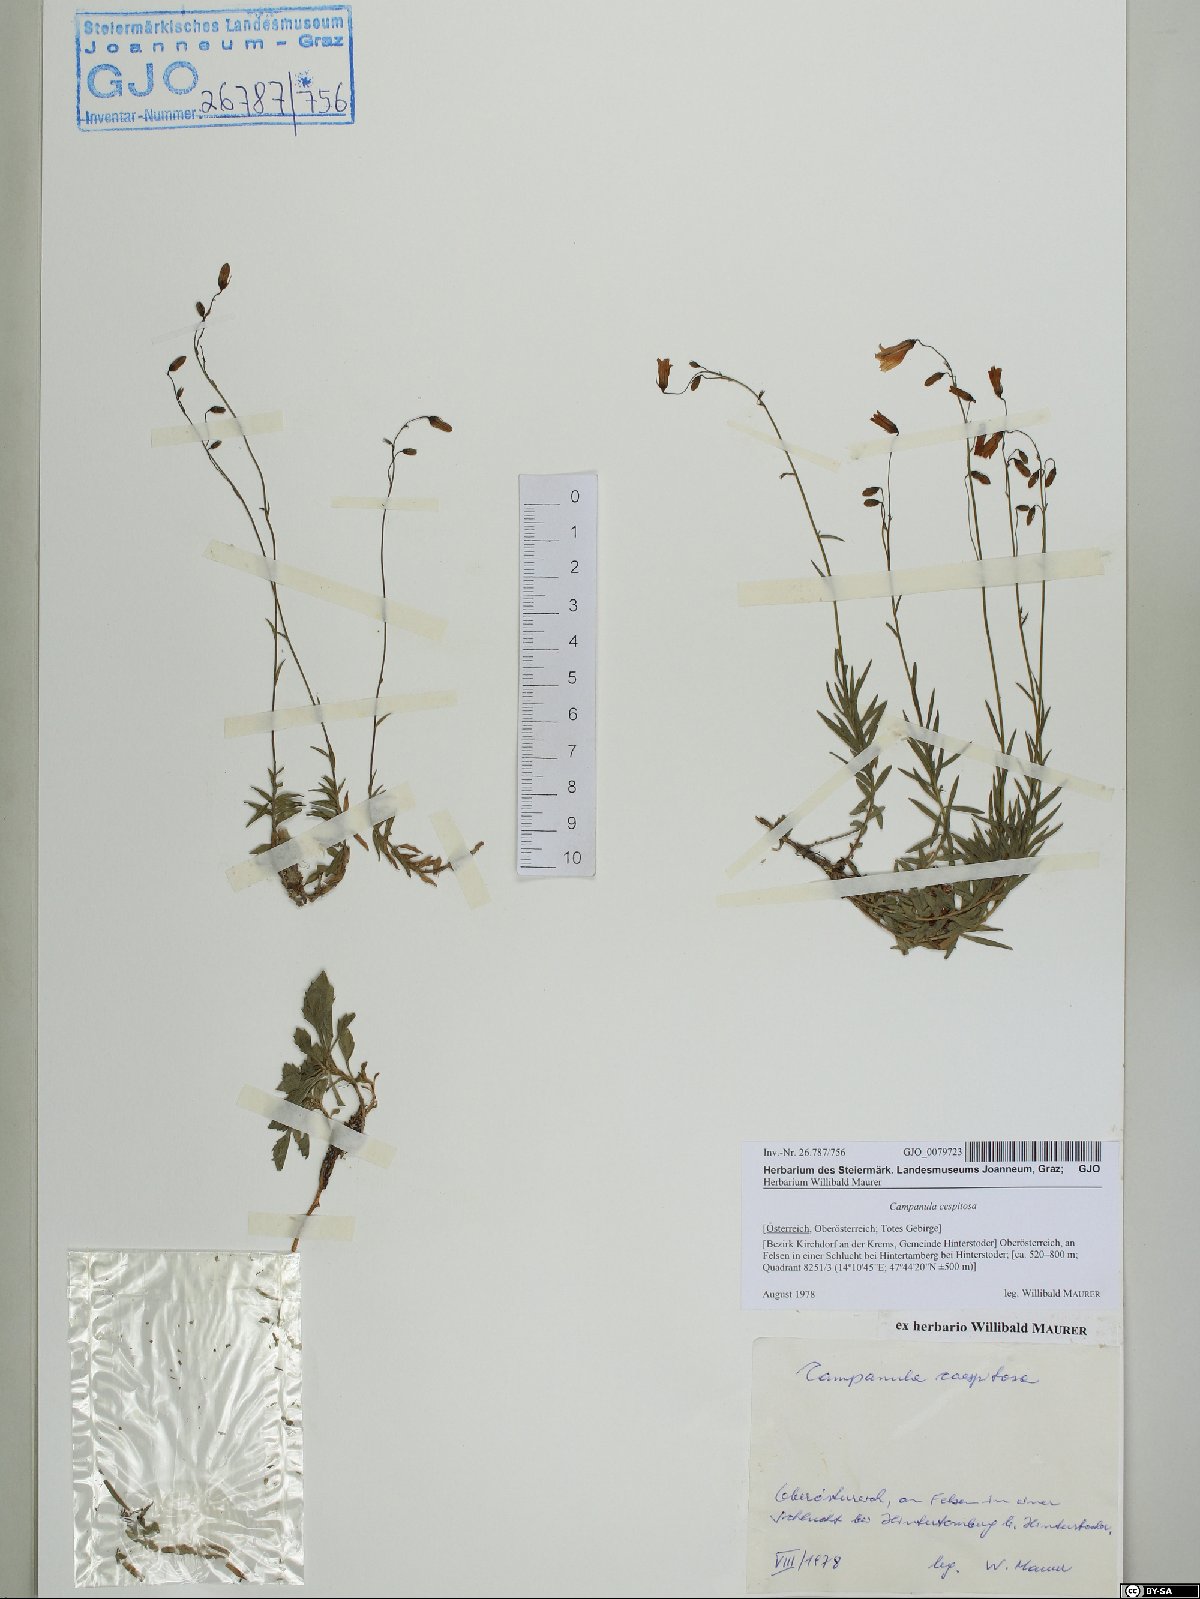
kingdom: Plantae
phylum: Tracheophyta
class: Magnoliopsida
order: Asterales
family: Campanulaceae
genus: Campanula
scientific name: Campanula cespitosa
